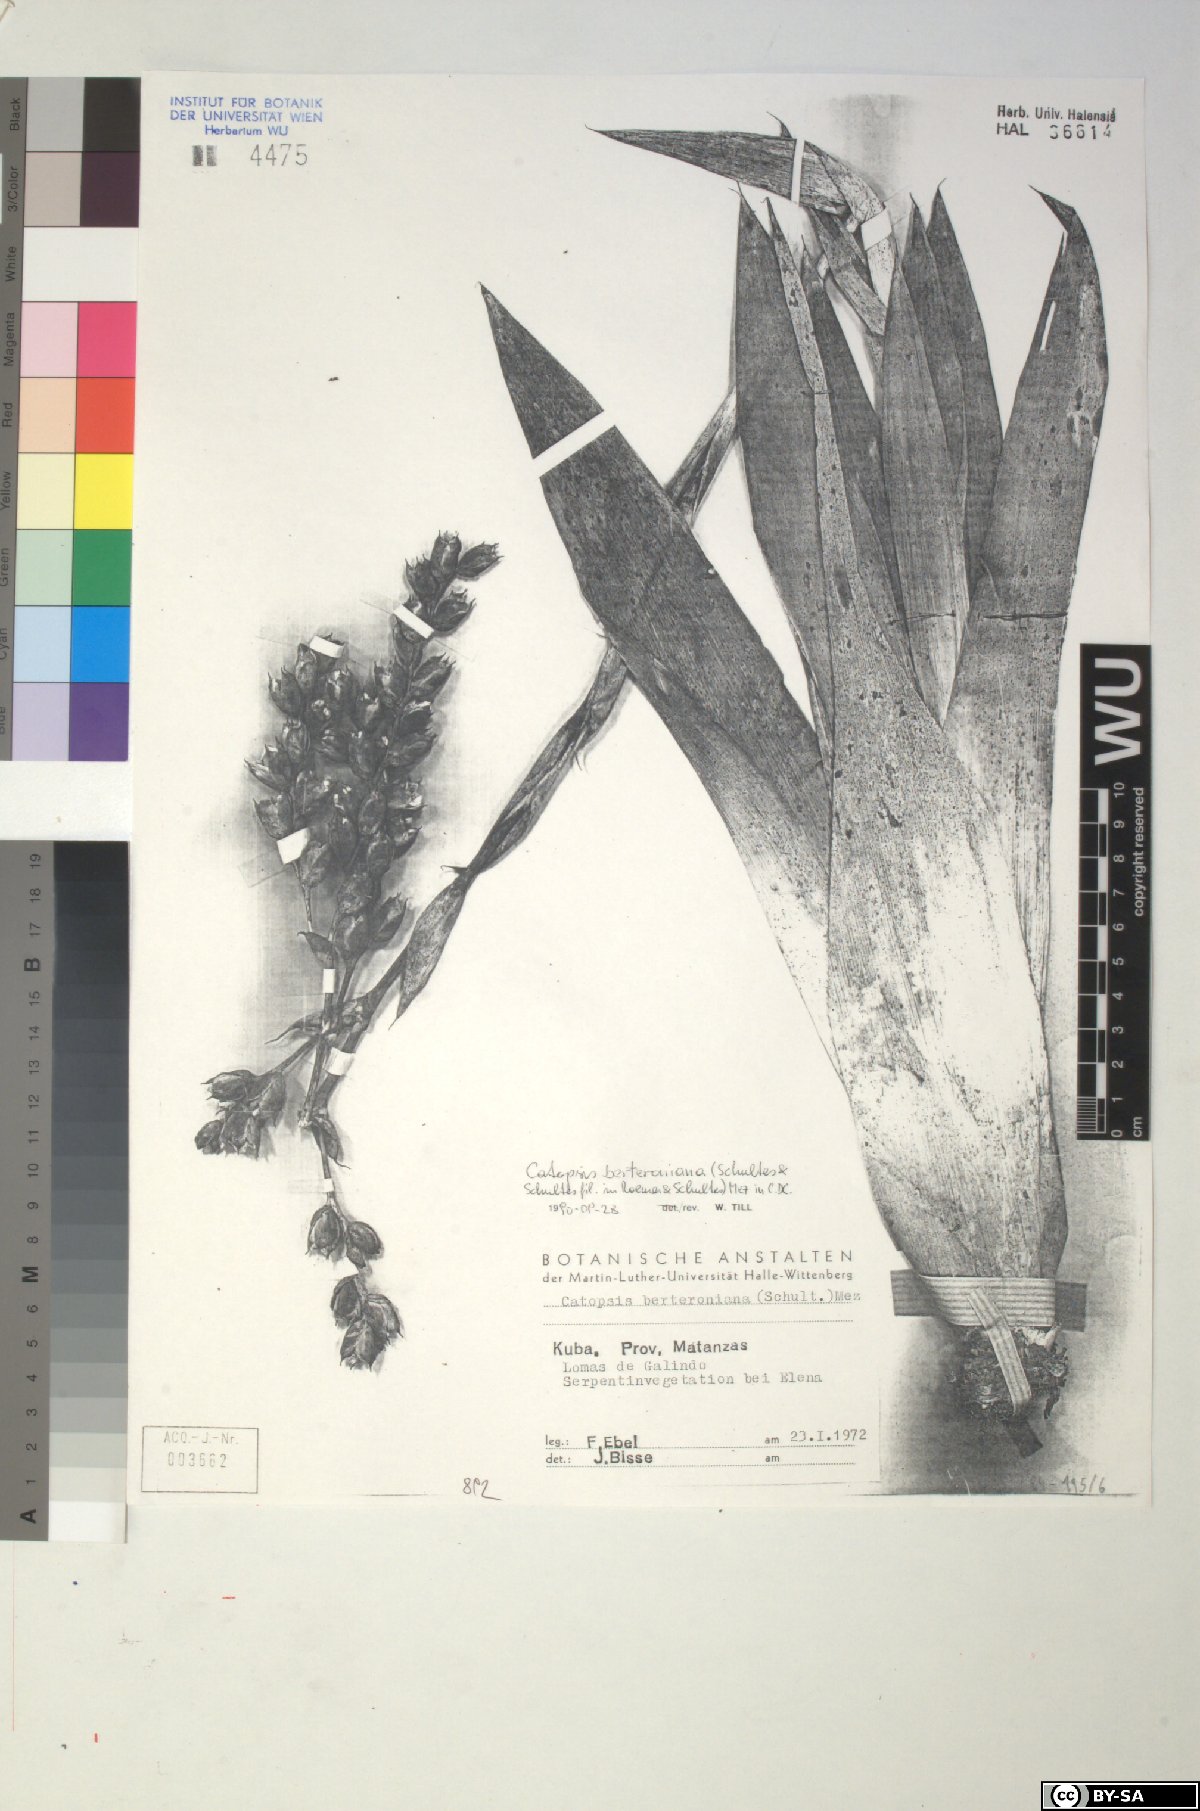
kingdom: Plantae
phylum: Tracheophyta
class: Liliopsida
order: Poales
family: Bromeliaceae
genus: Catopsis
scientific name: Catopsis berteroniana
